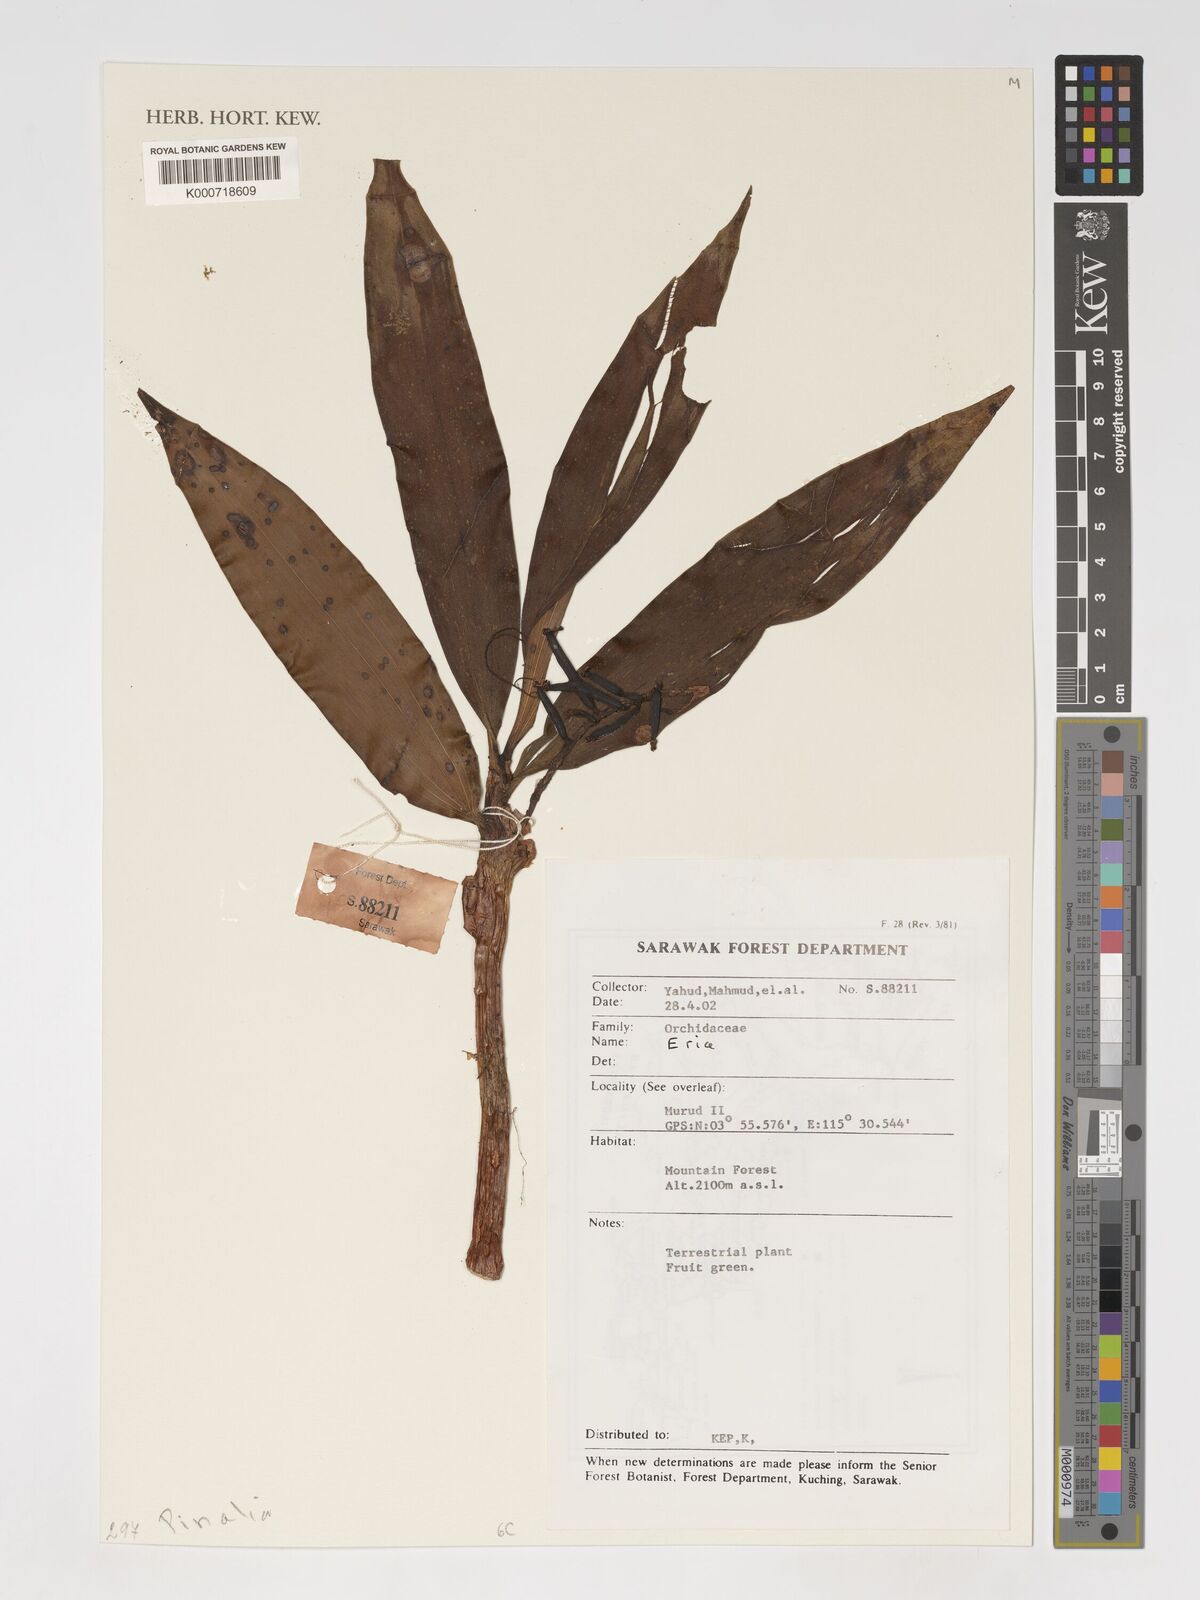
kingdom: Plantae
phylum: Tracheophyta
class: Liliopsida
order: Asparagales
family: Orchidaceae
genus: Eria
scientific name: Eria
